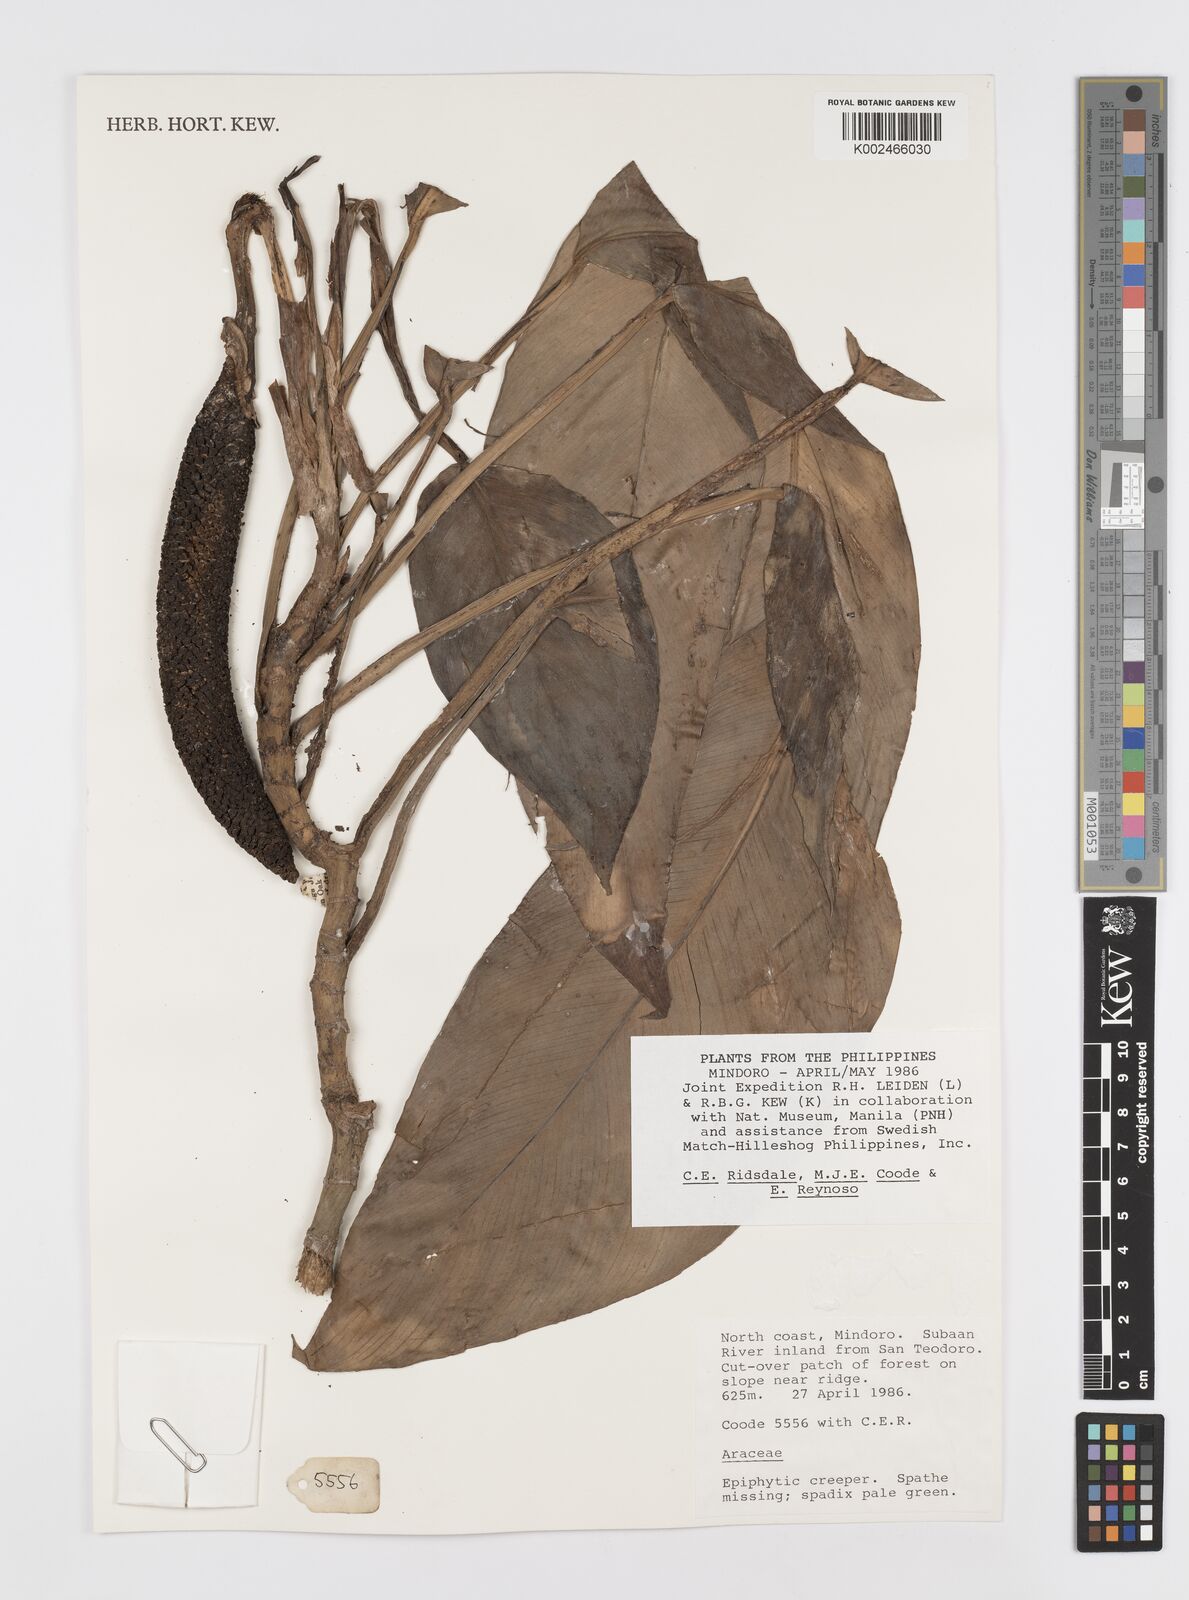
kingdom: Plantae
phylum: Tracheophyta
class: Liliopsida
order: Alismatales
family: Araceae
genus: Rhaphidophora
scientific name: Rhaphidophora elmeri
